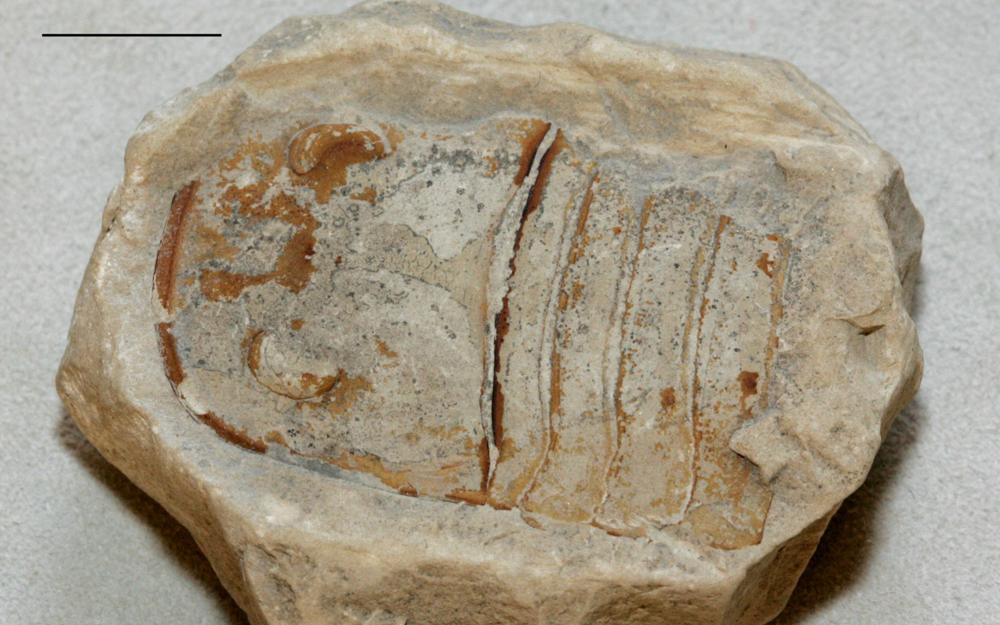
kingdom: Animalia
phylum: Arthropoda
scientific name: Arthropoda
